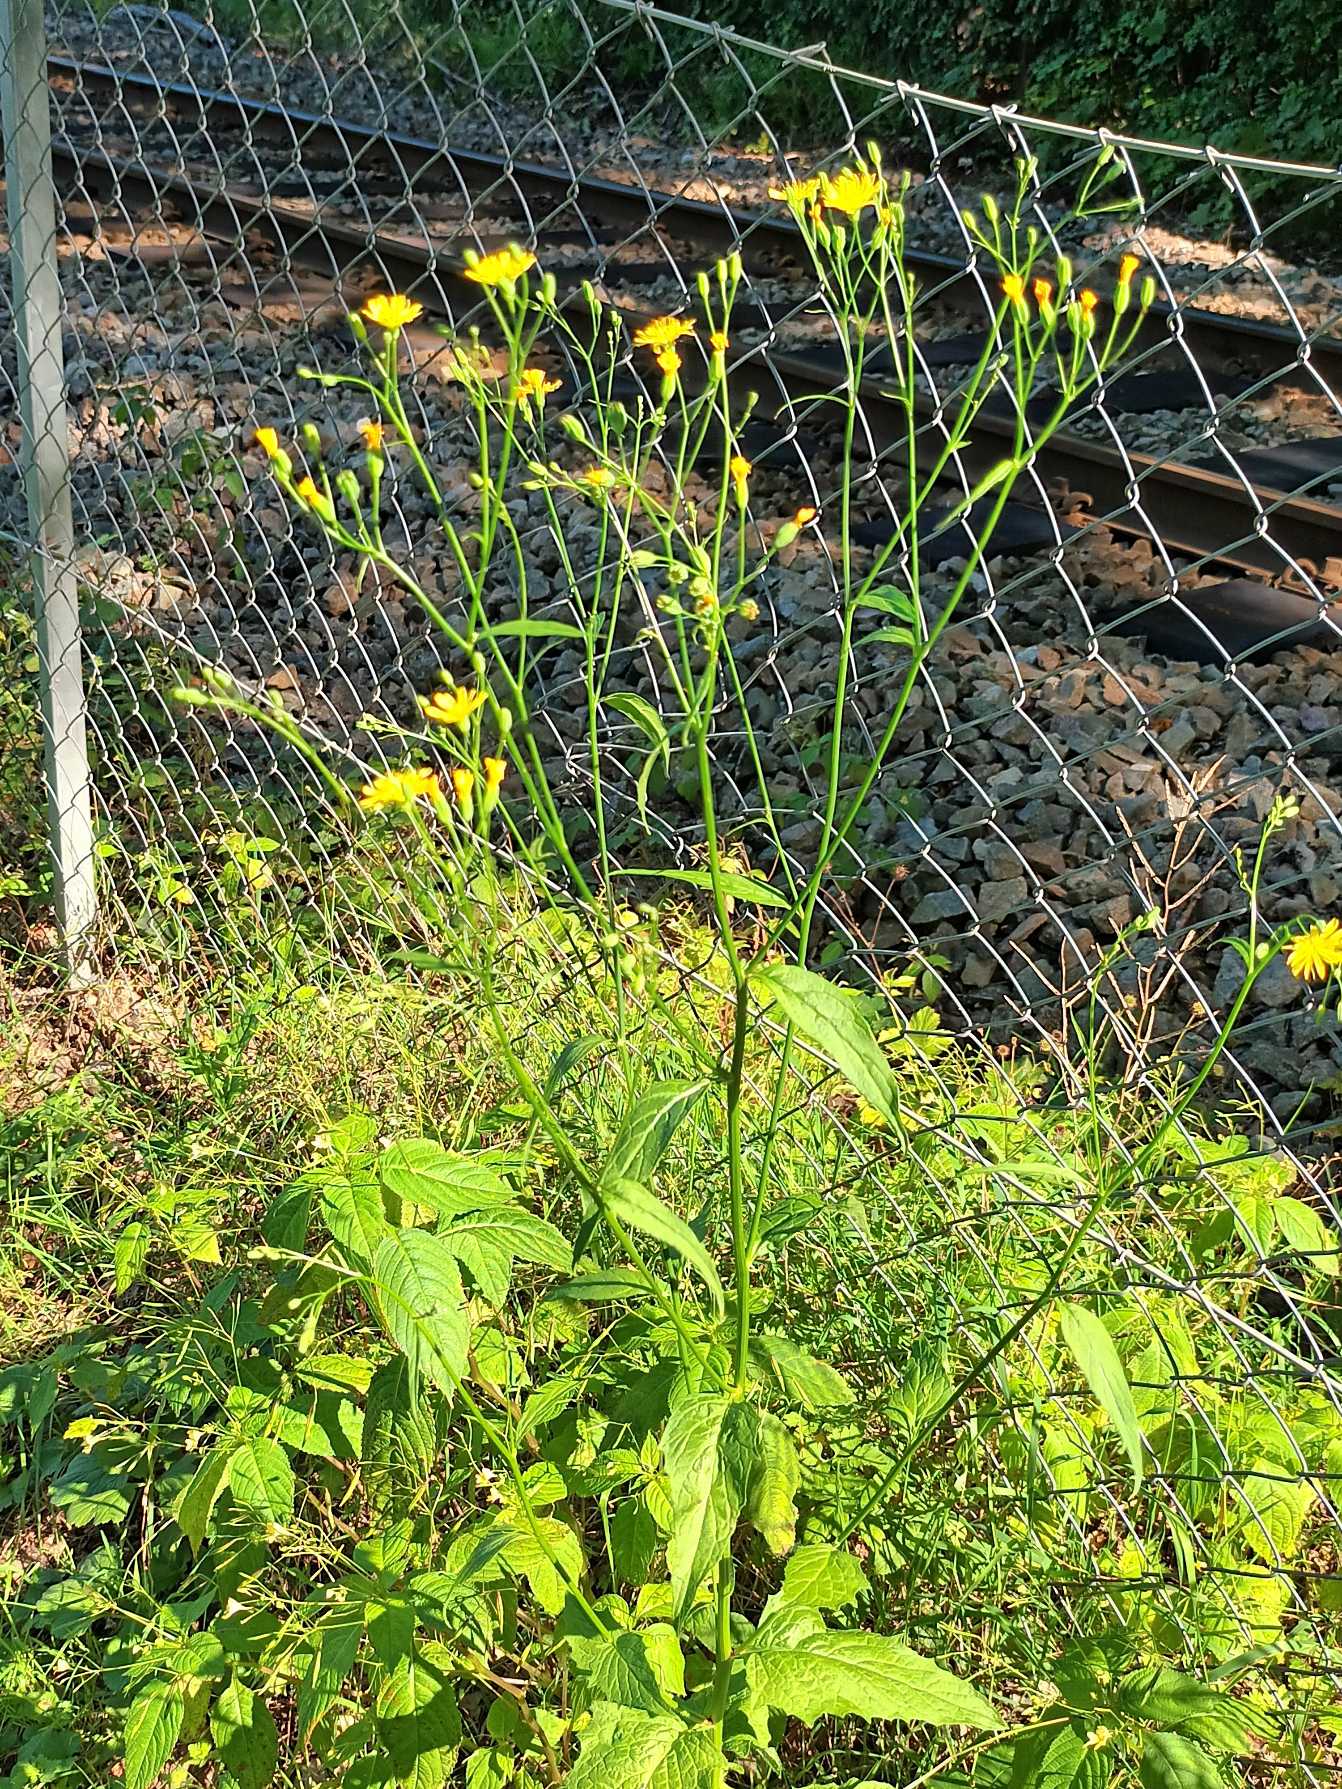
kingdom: Plantae
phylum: Tracheophyta
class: Magnoliopsida
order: Asterales
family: Asteraceae
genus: Lapsana
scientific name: Lapsana communis
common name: Haremad
